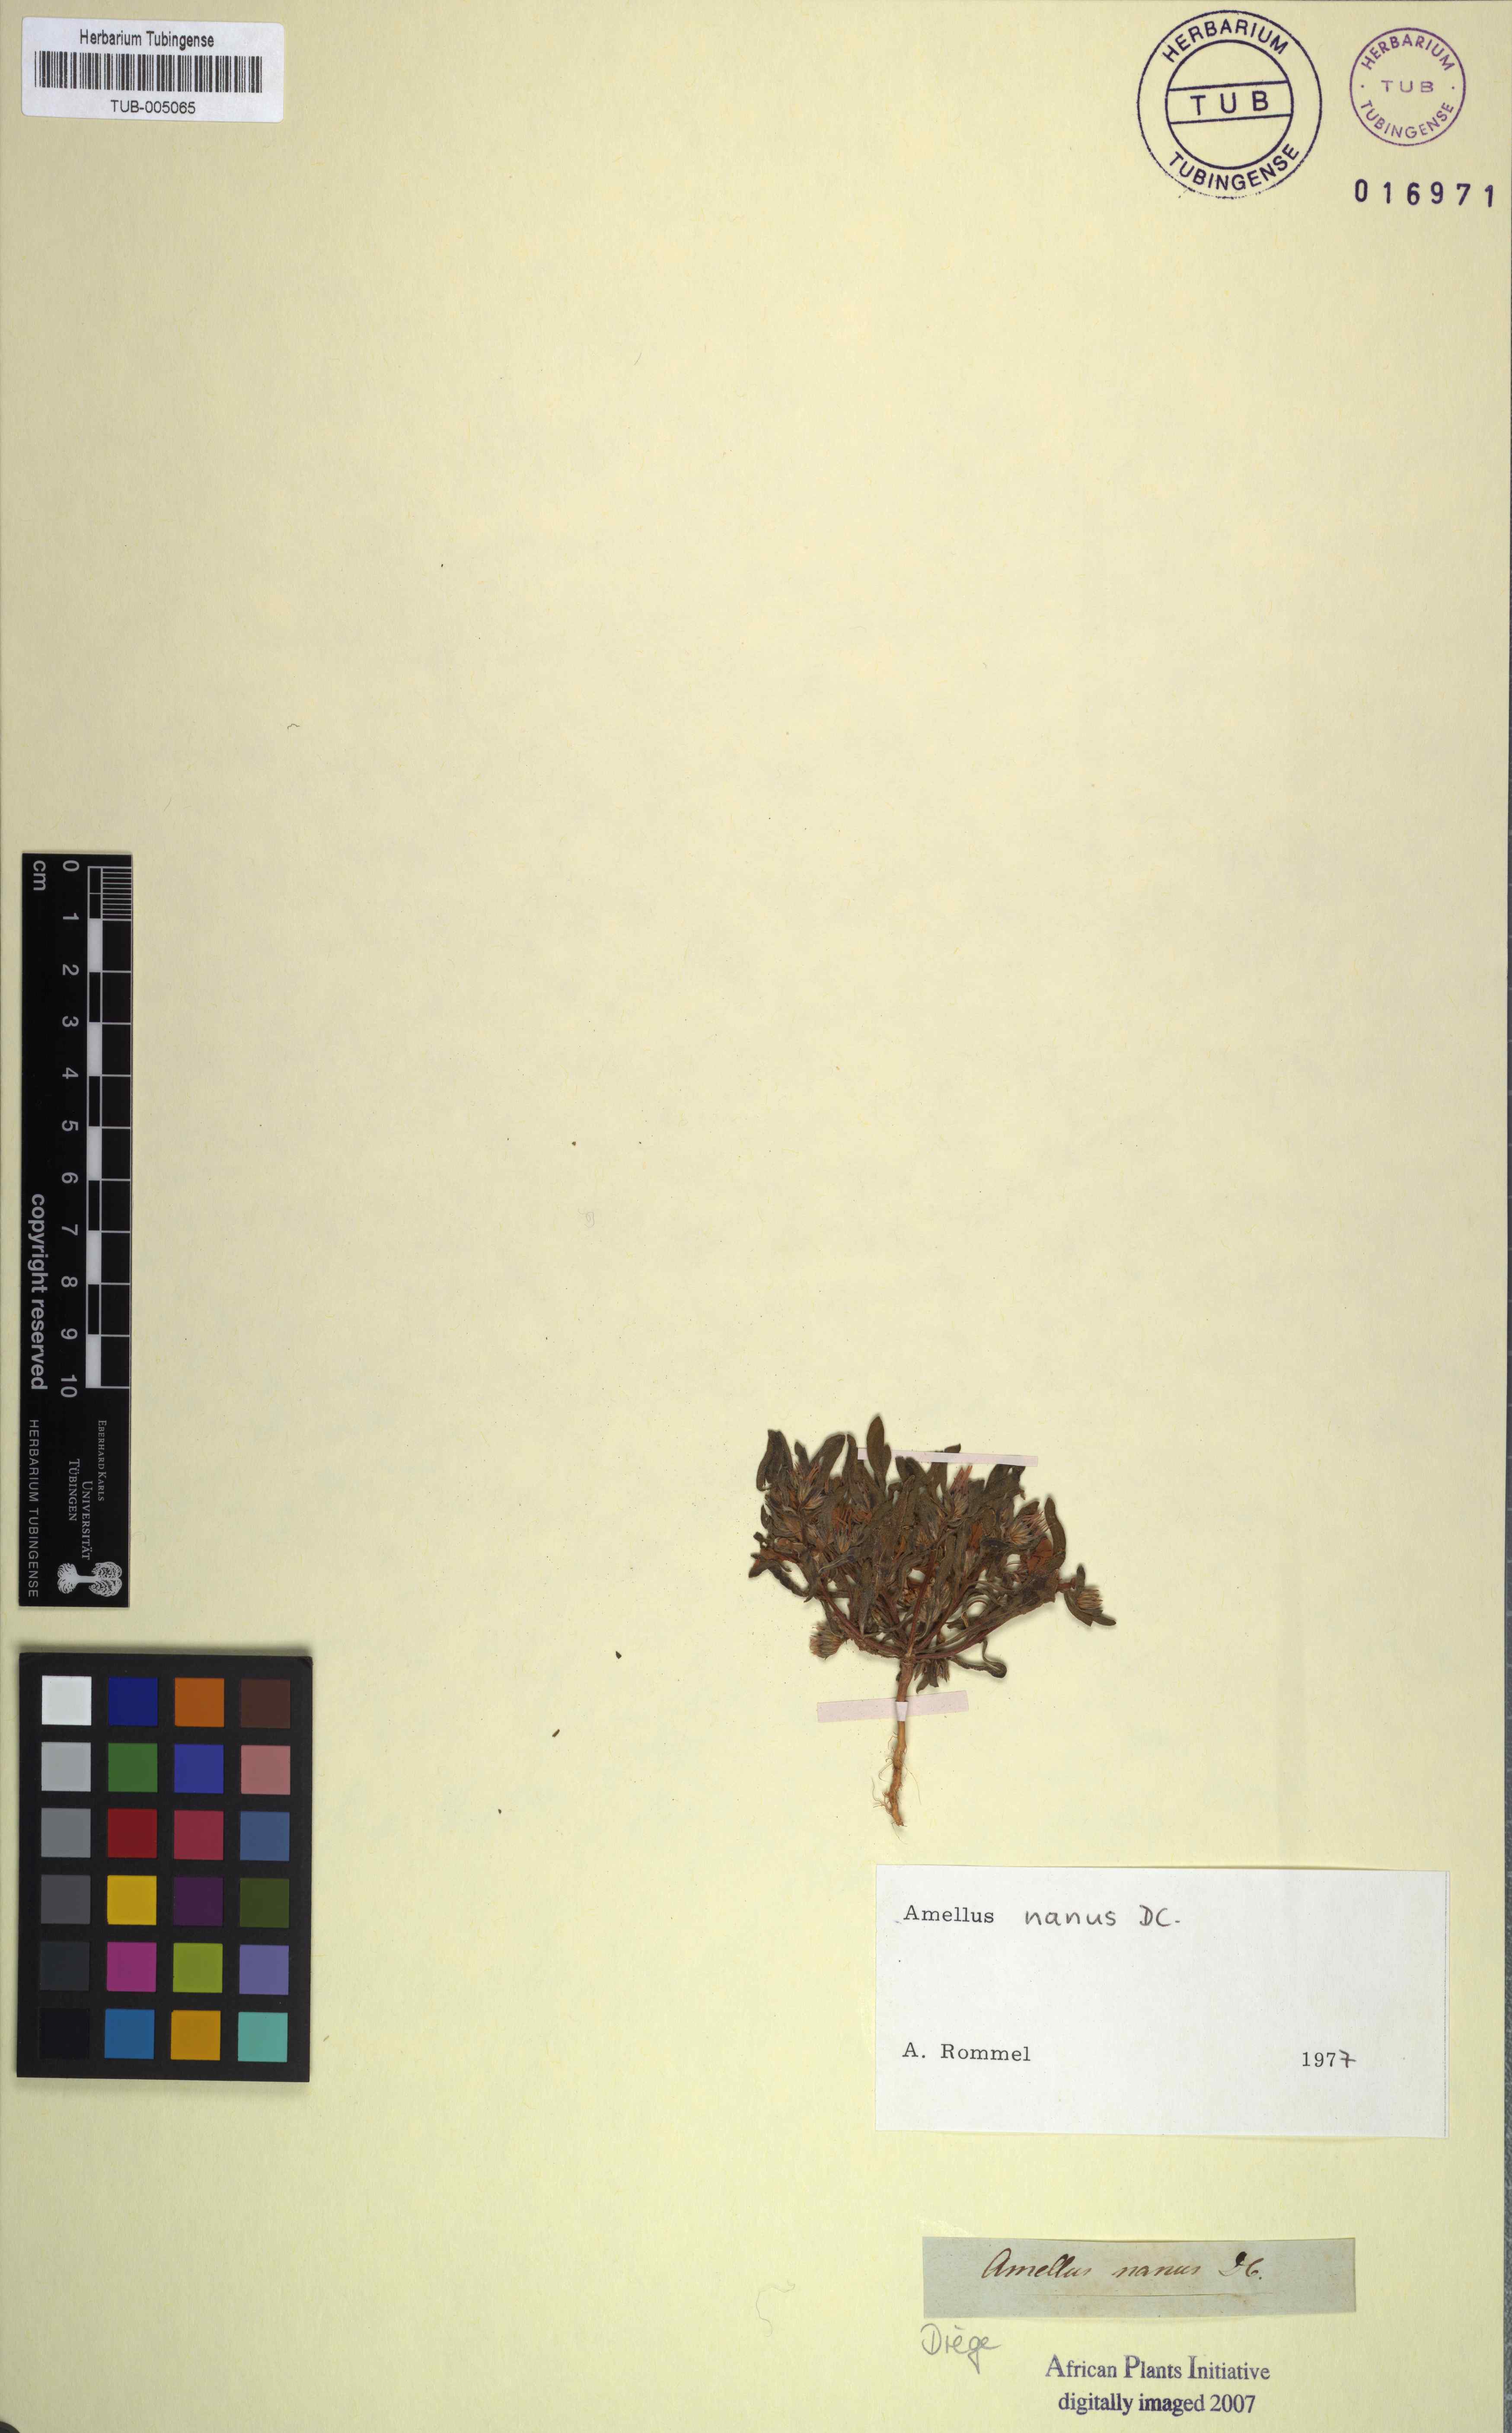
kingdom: Plantae
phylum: Tracheophyta
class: Magnoliopsida
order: Asterales
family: Asteraceae
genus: Amellus
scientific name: Amellus nanus
